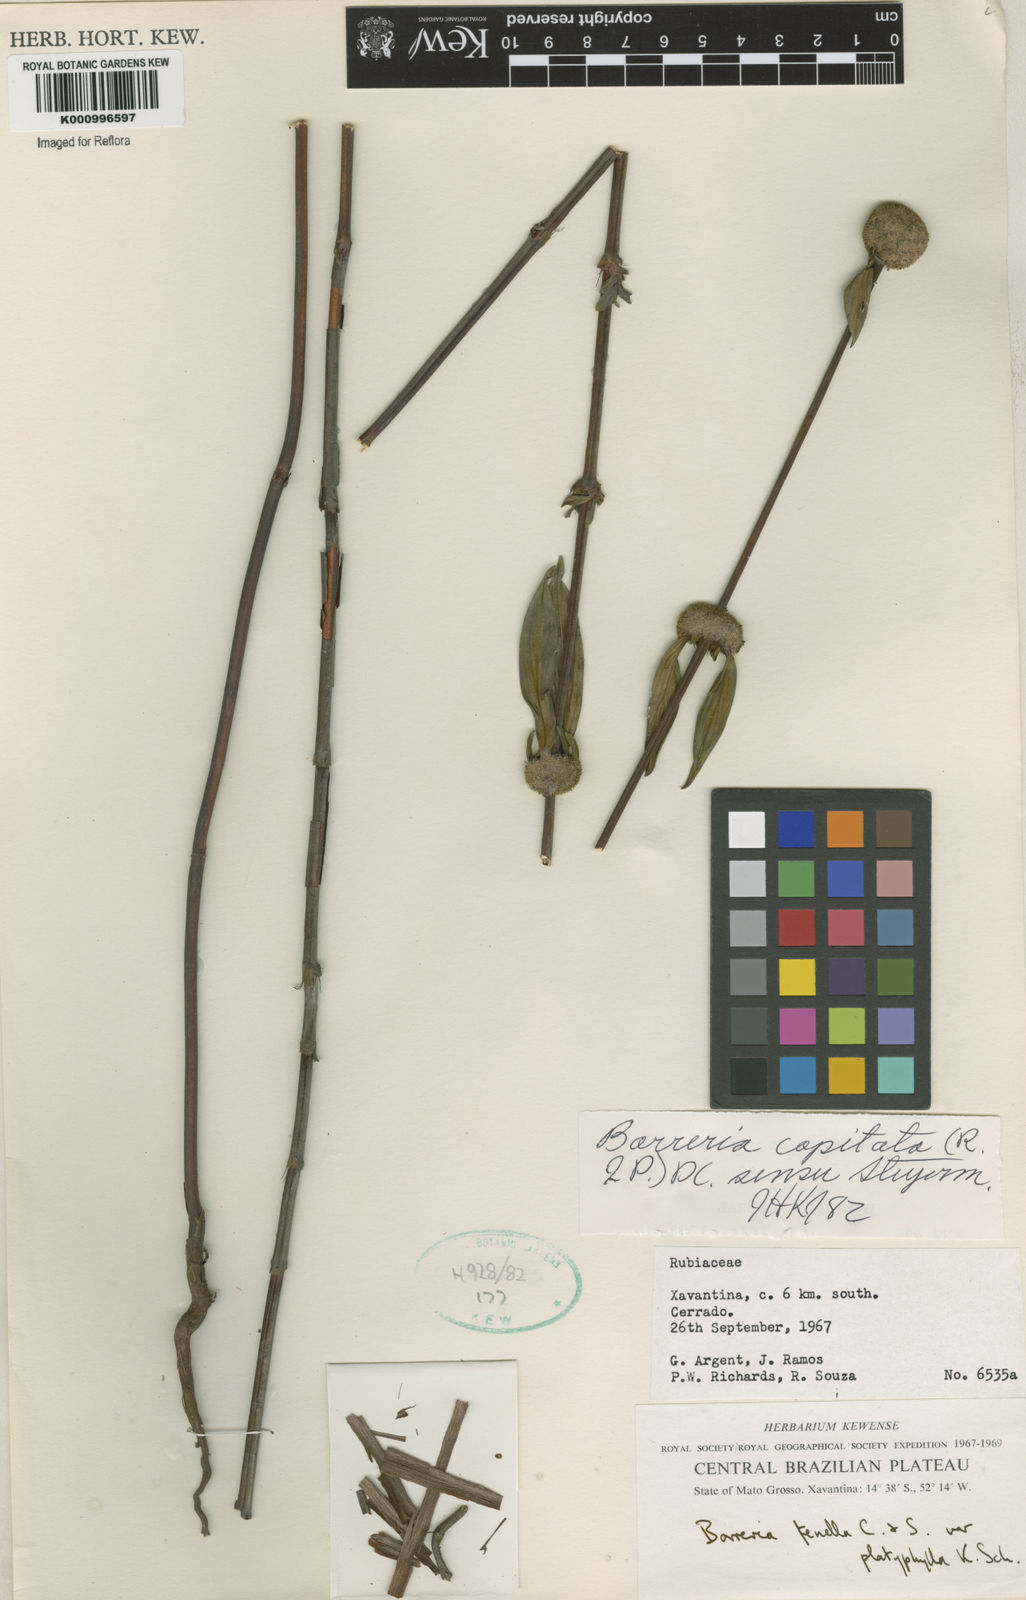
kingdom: Plantae
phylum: Tracheophyta
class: Magnoliopsida
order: Gentianales
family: Rubiaceae
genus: Spermacoce
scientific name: Spermacoce capitata
